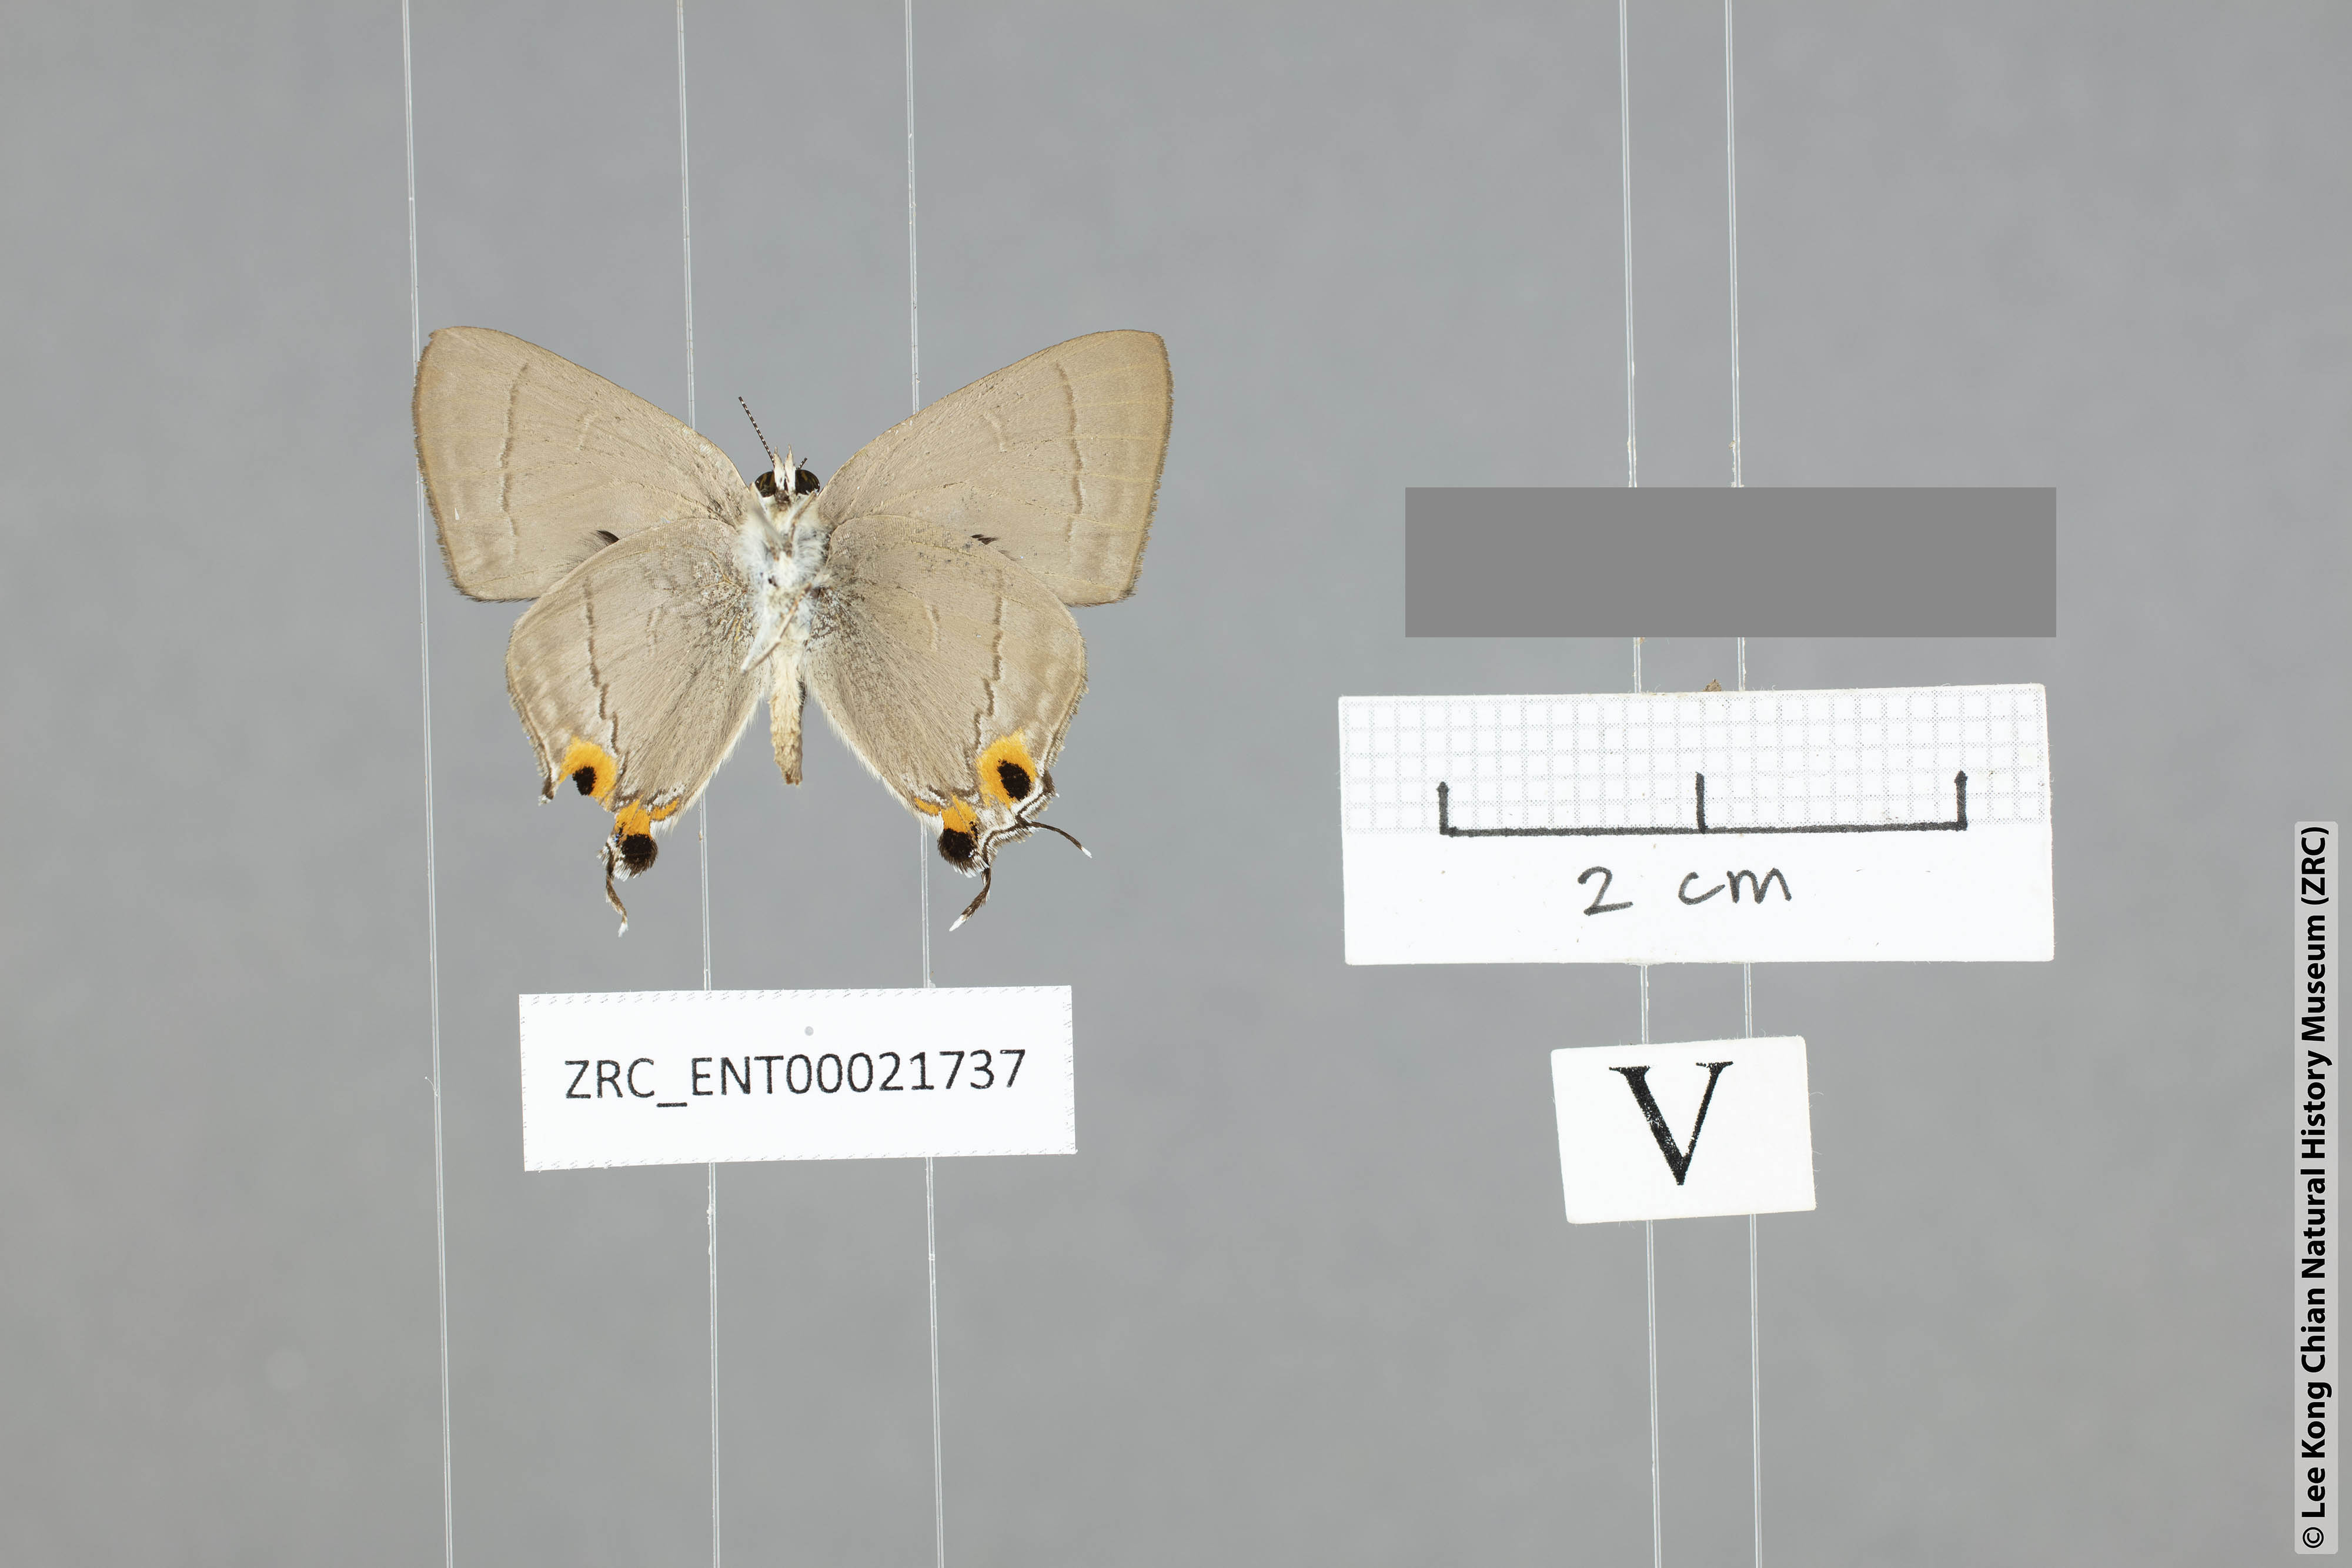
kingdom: Animalia
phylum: Arthropoda
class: Insecta
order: Lepidoptera
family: Lycaenidae
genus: Pratapa
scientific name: Pratapa icetas
